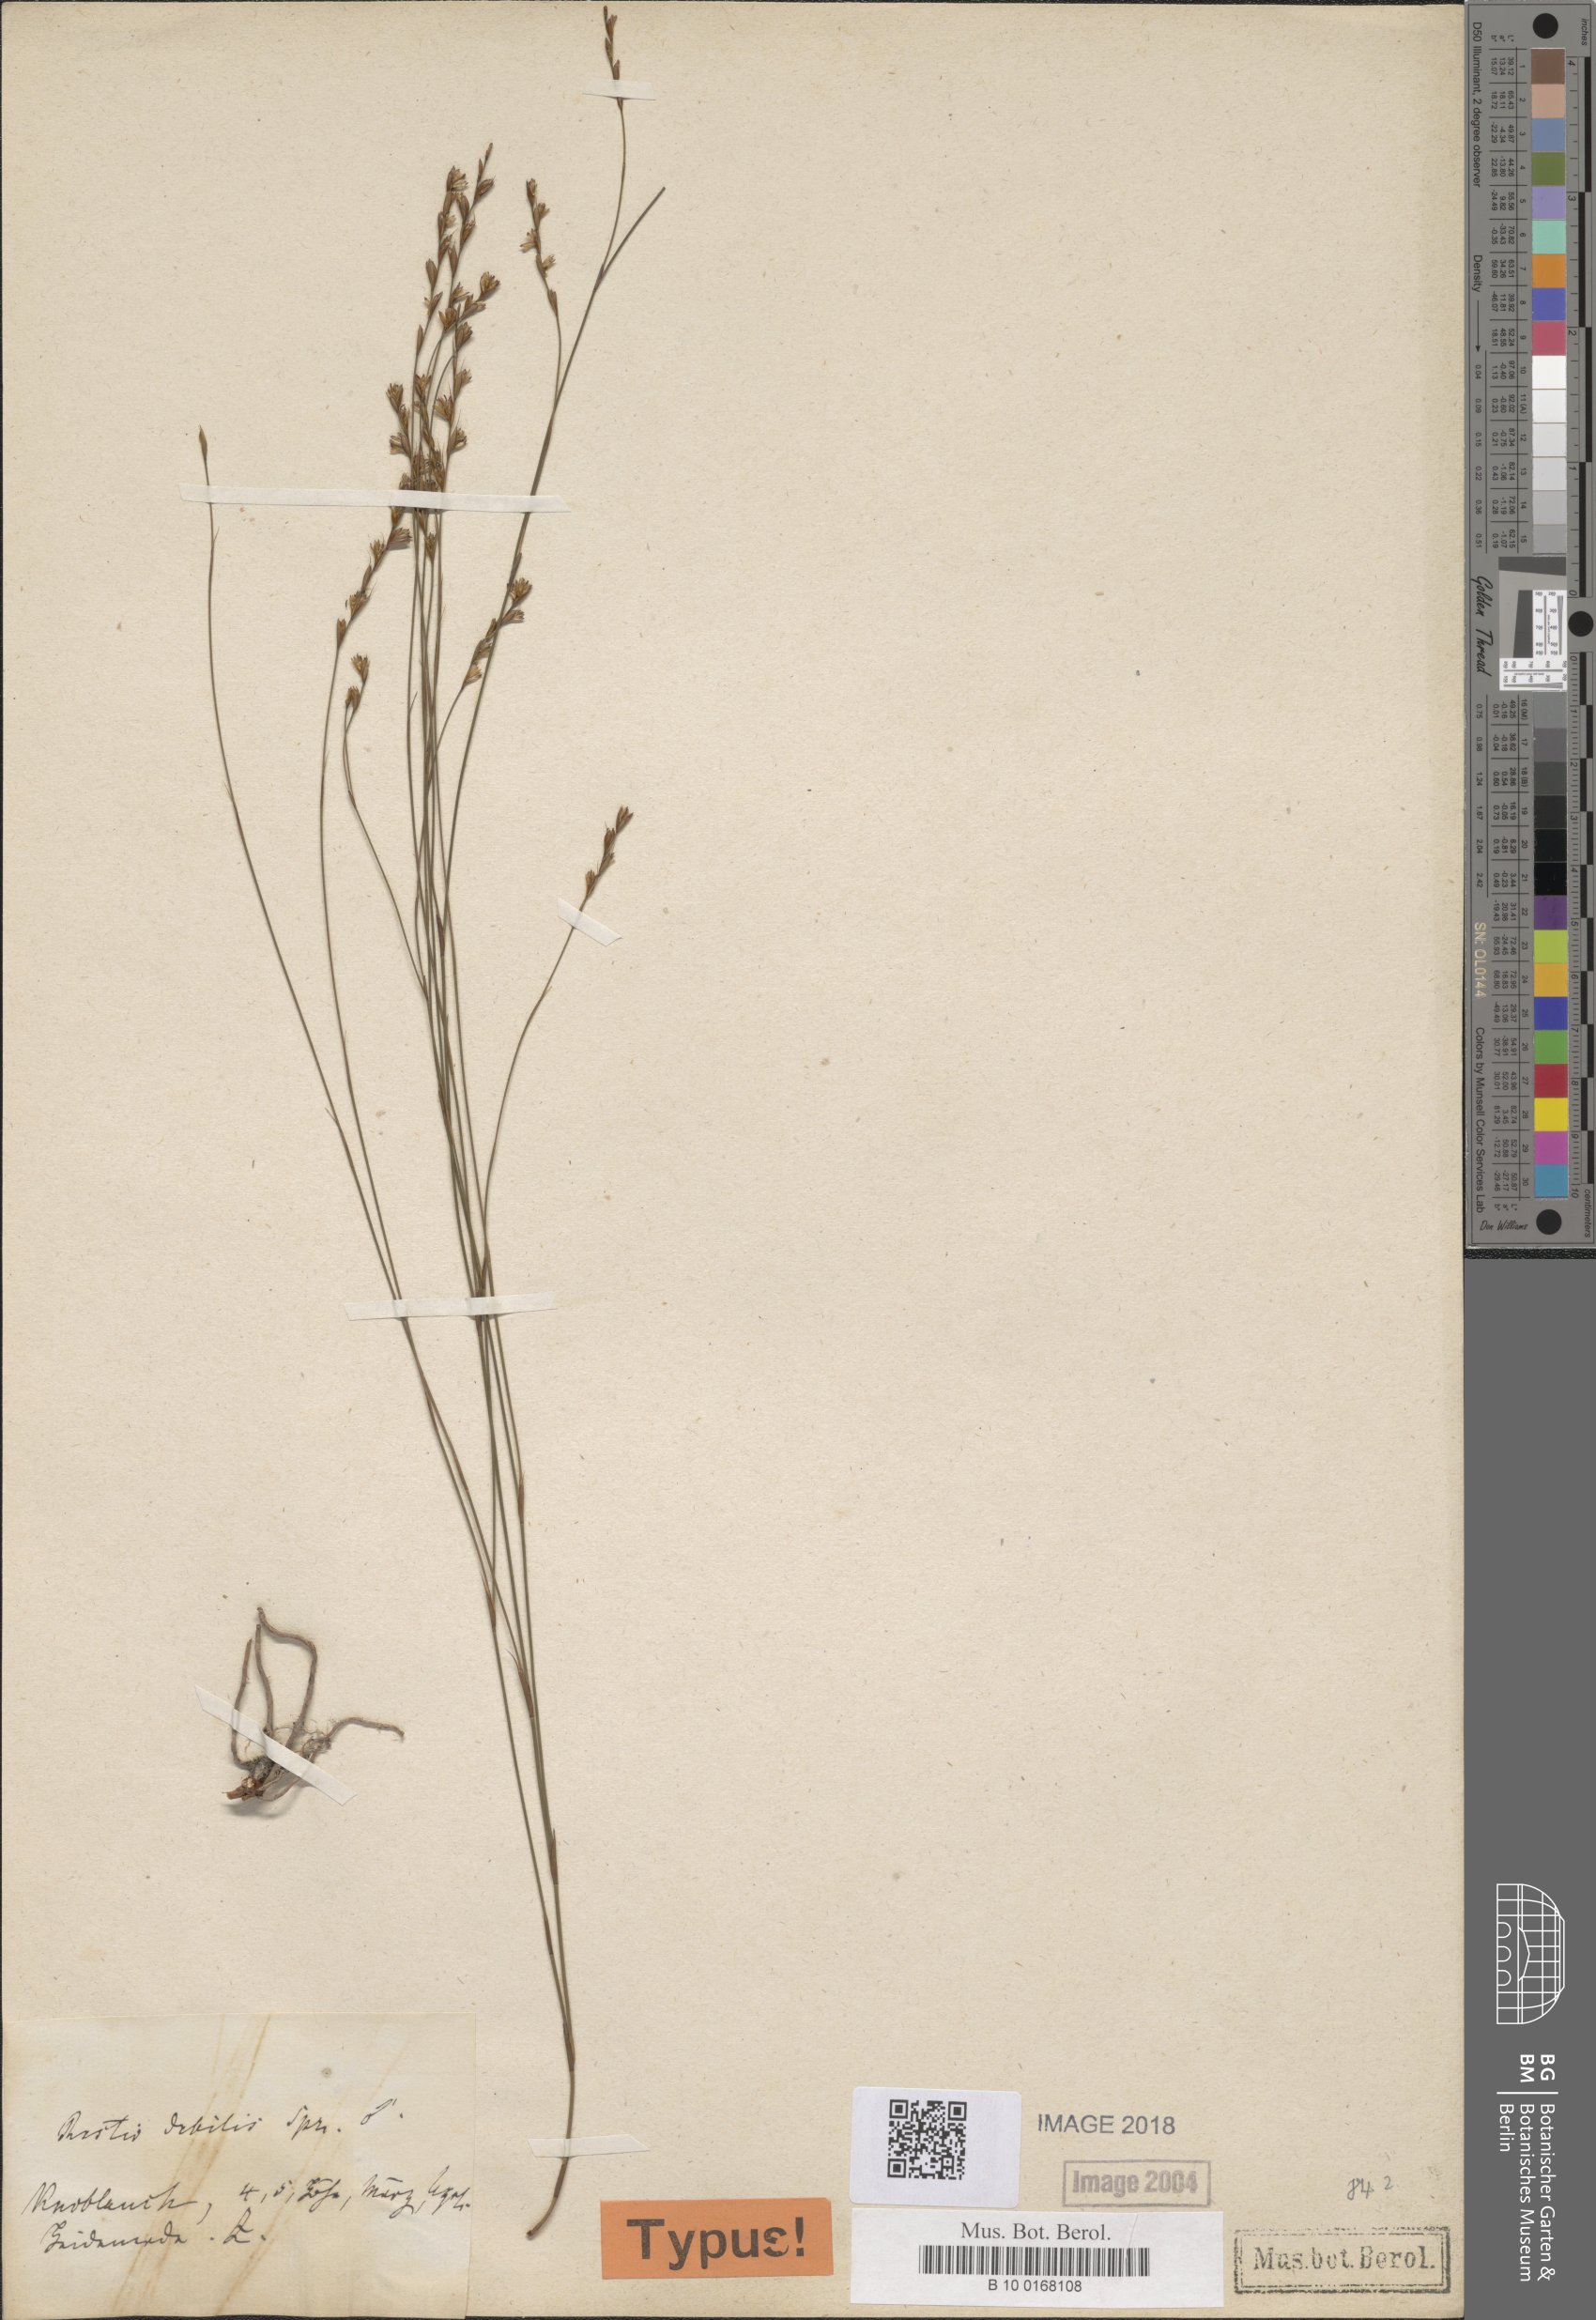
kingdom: Plantae
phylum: Tracheophyta
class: Liliopsida
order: Poales
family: Restionaceae
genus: Restio
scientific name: Restio debilis
